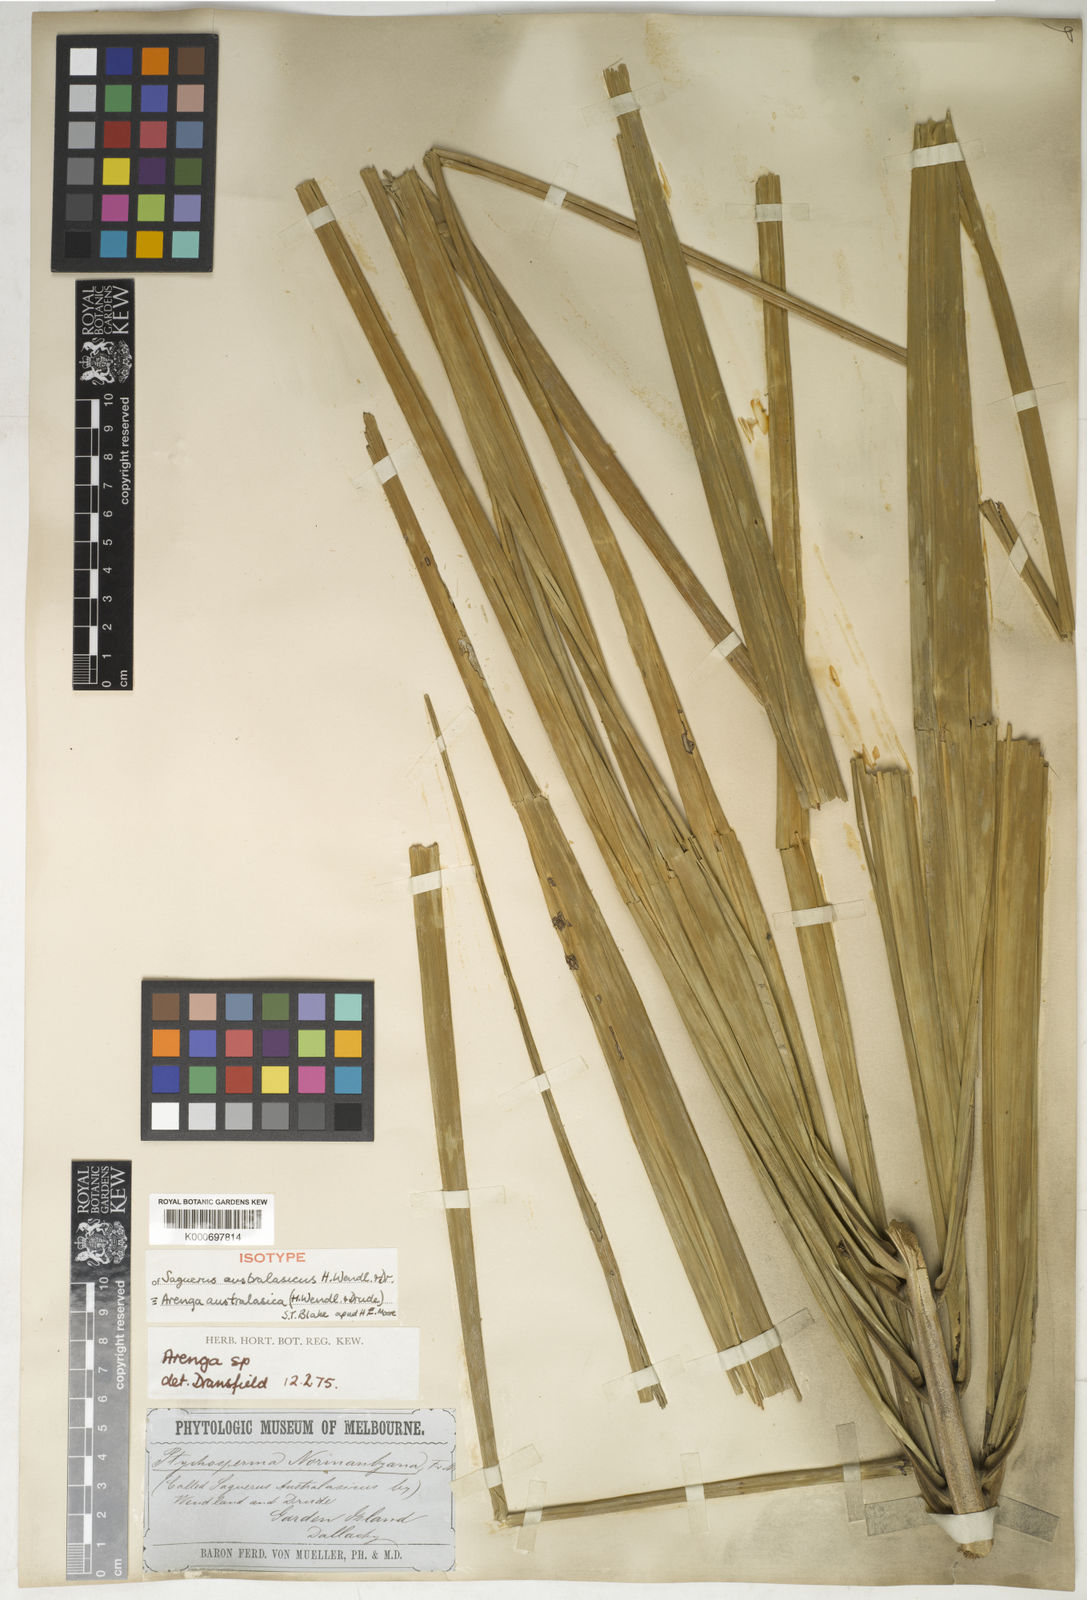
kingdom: Plantae
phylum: Tracheophyta
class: Liliopsida
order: Arecales
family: Arecaceae
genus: Arenga
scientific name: Arenga australasica
